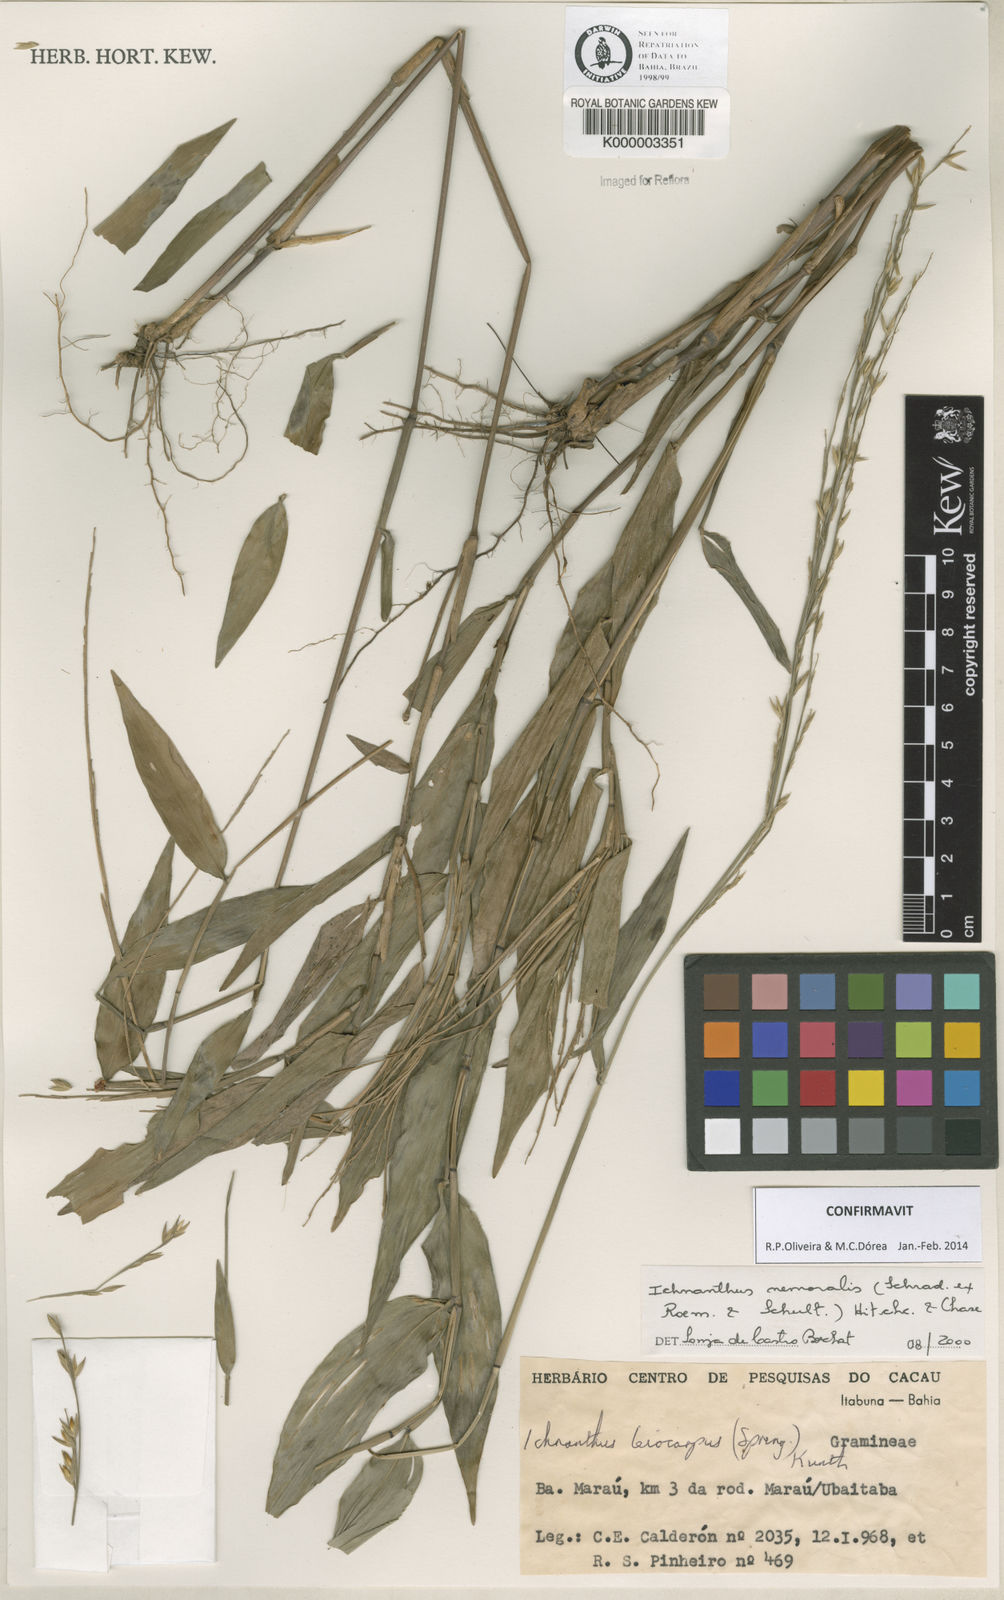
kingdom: Plantae
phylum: Tracheophyta
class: Liliopsida
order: Poales
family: Poaceae
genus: Ichnanthus
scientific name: Ichnanthus nemoralis
